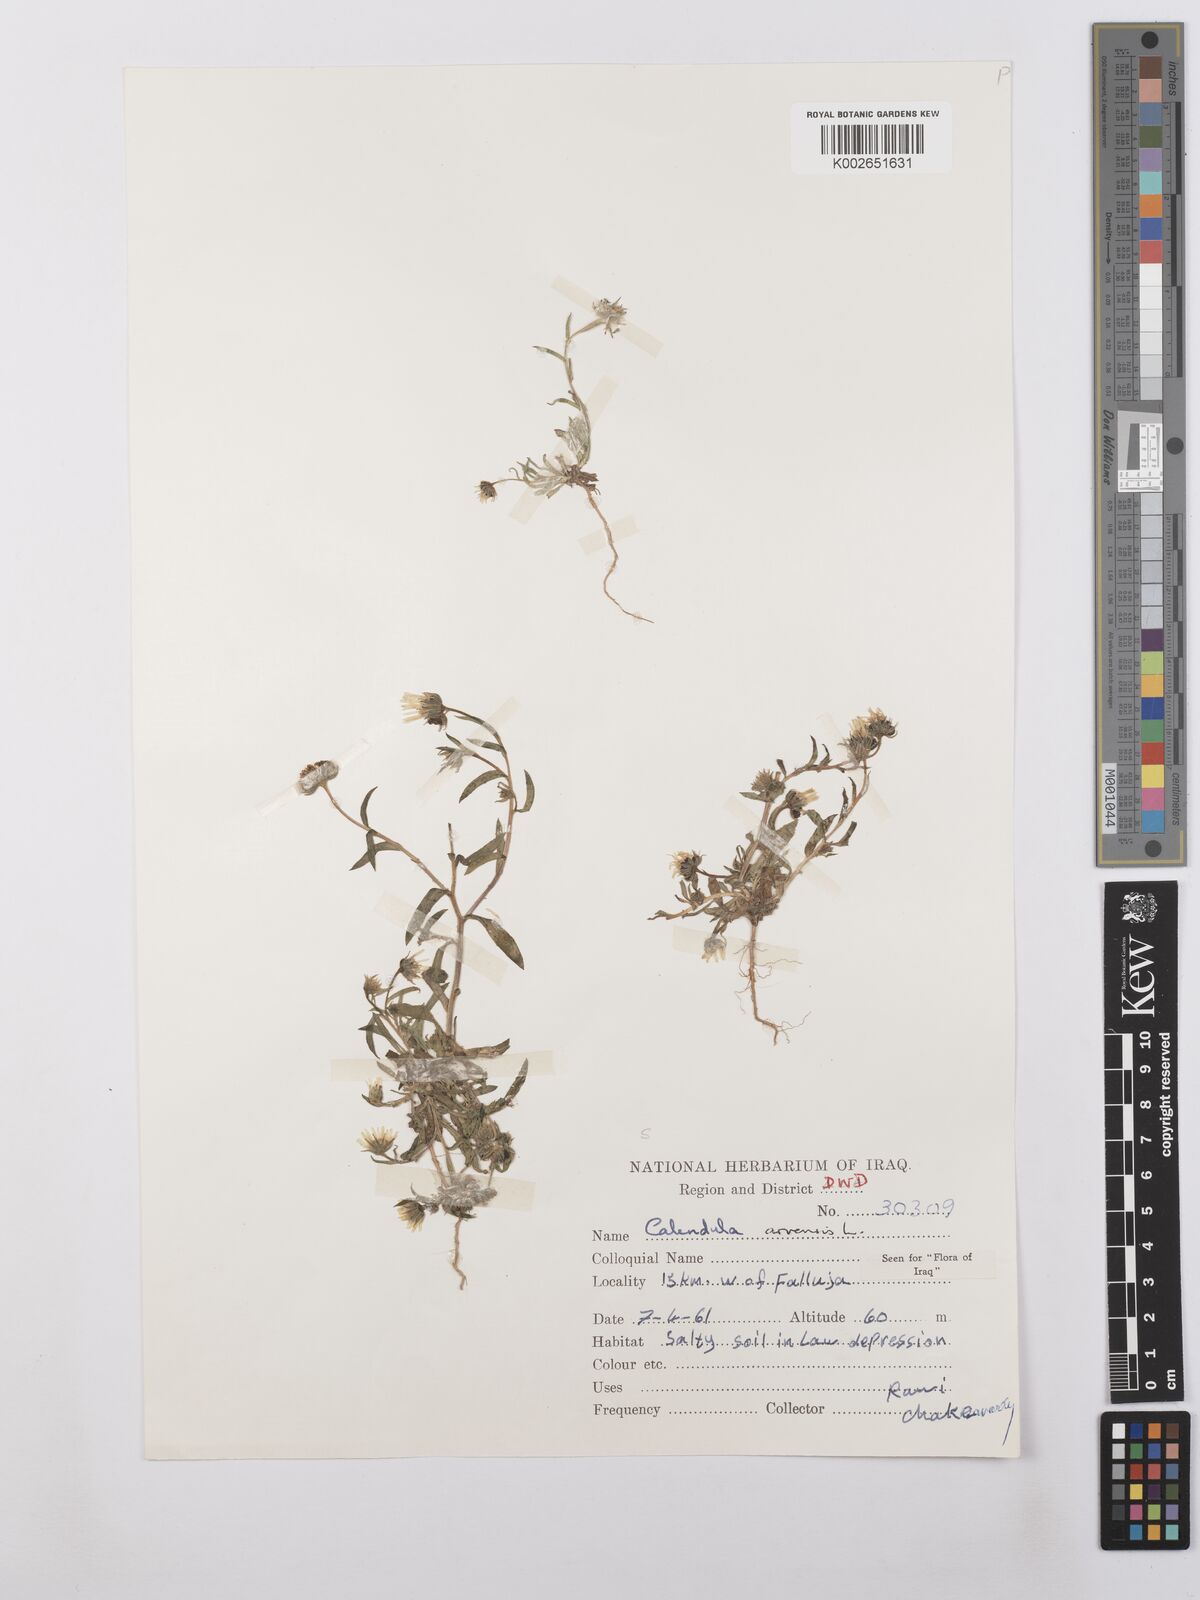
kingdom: Plantae
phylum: Tracheophyta
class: Magnoliopsida
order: Asterales
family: Asteraceae
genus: Calendula
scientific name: Calendula arvensis
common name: Field marigold
